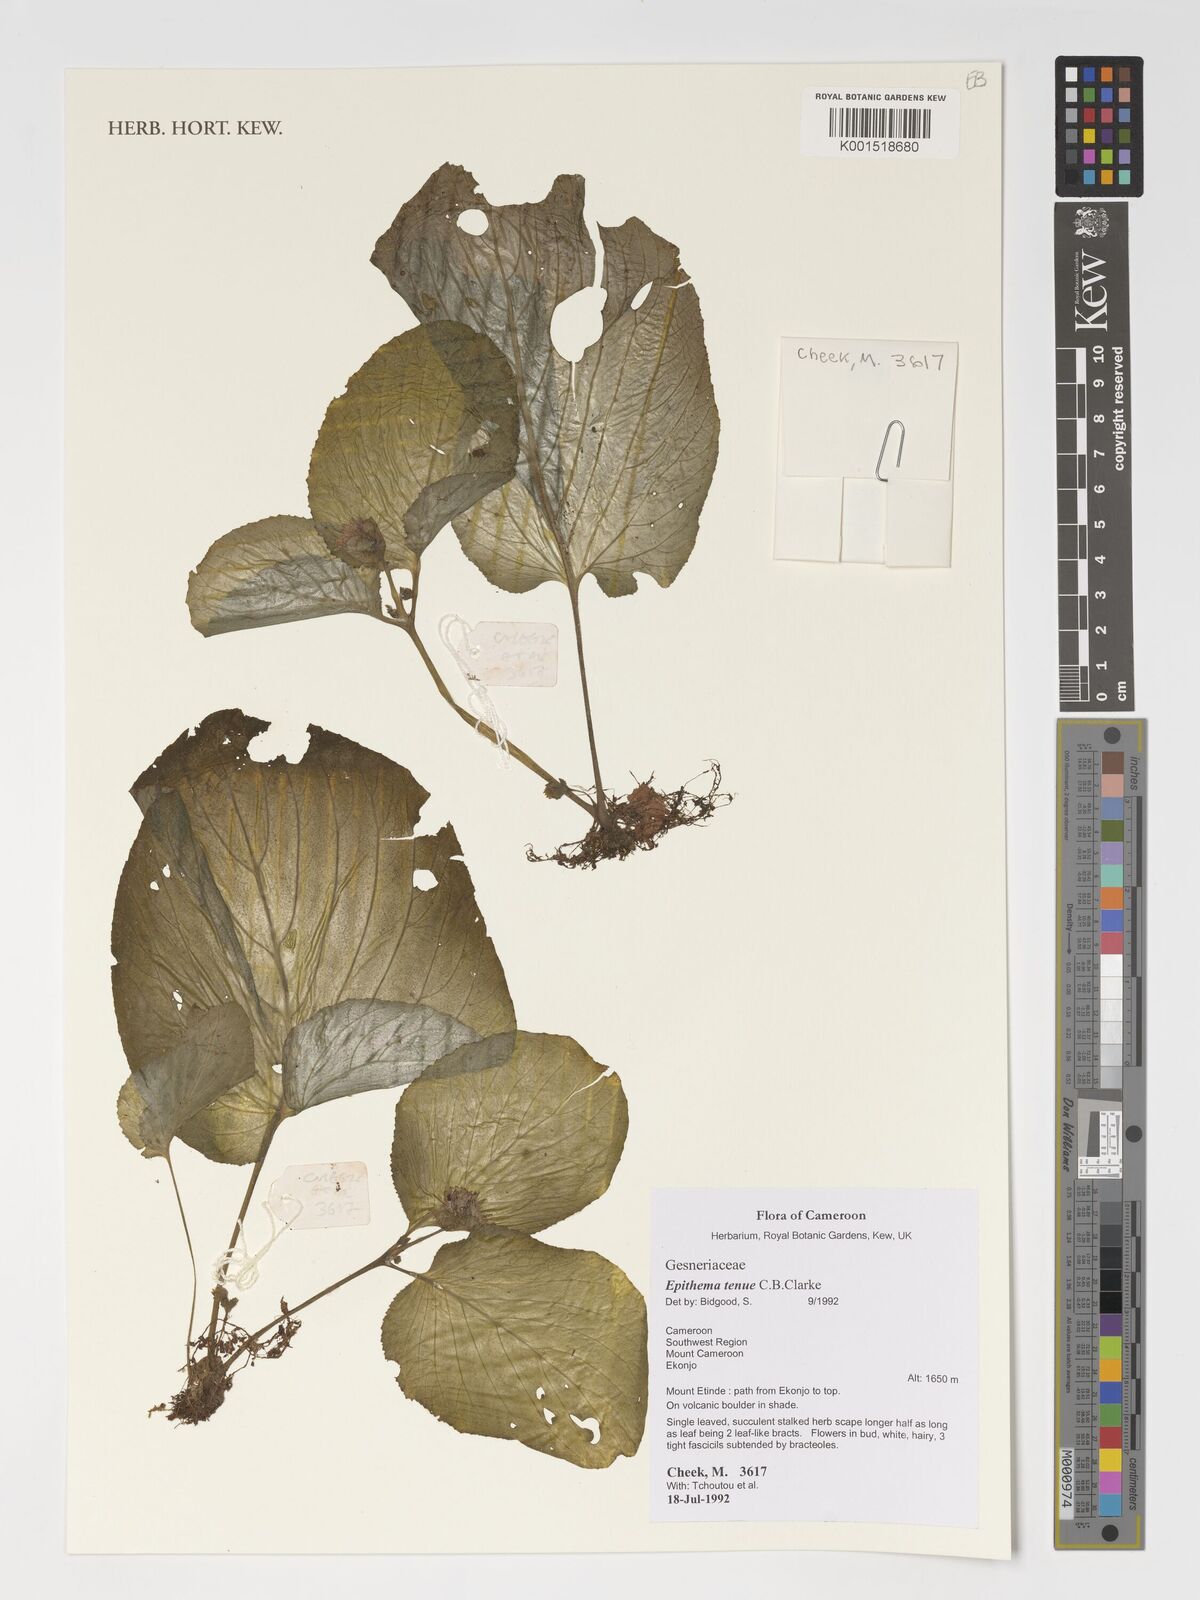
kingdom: Plantae
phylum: Tracheophyta
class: Magnoliopsida
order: Lamiales
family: Gesneriaceae
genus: Epithema
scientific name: Epithema tenue
